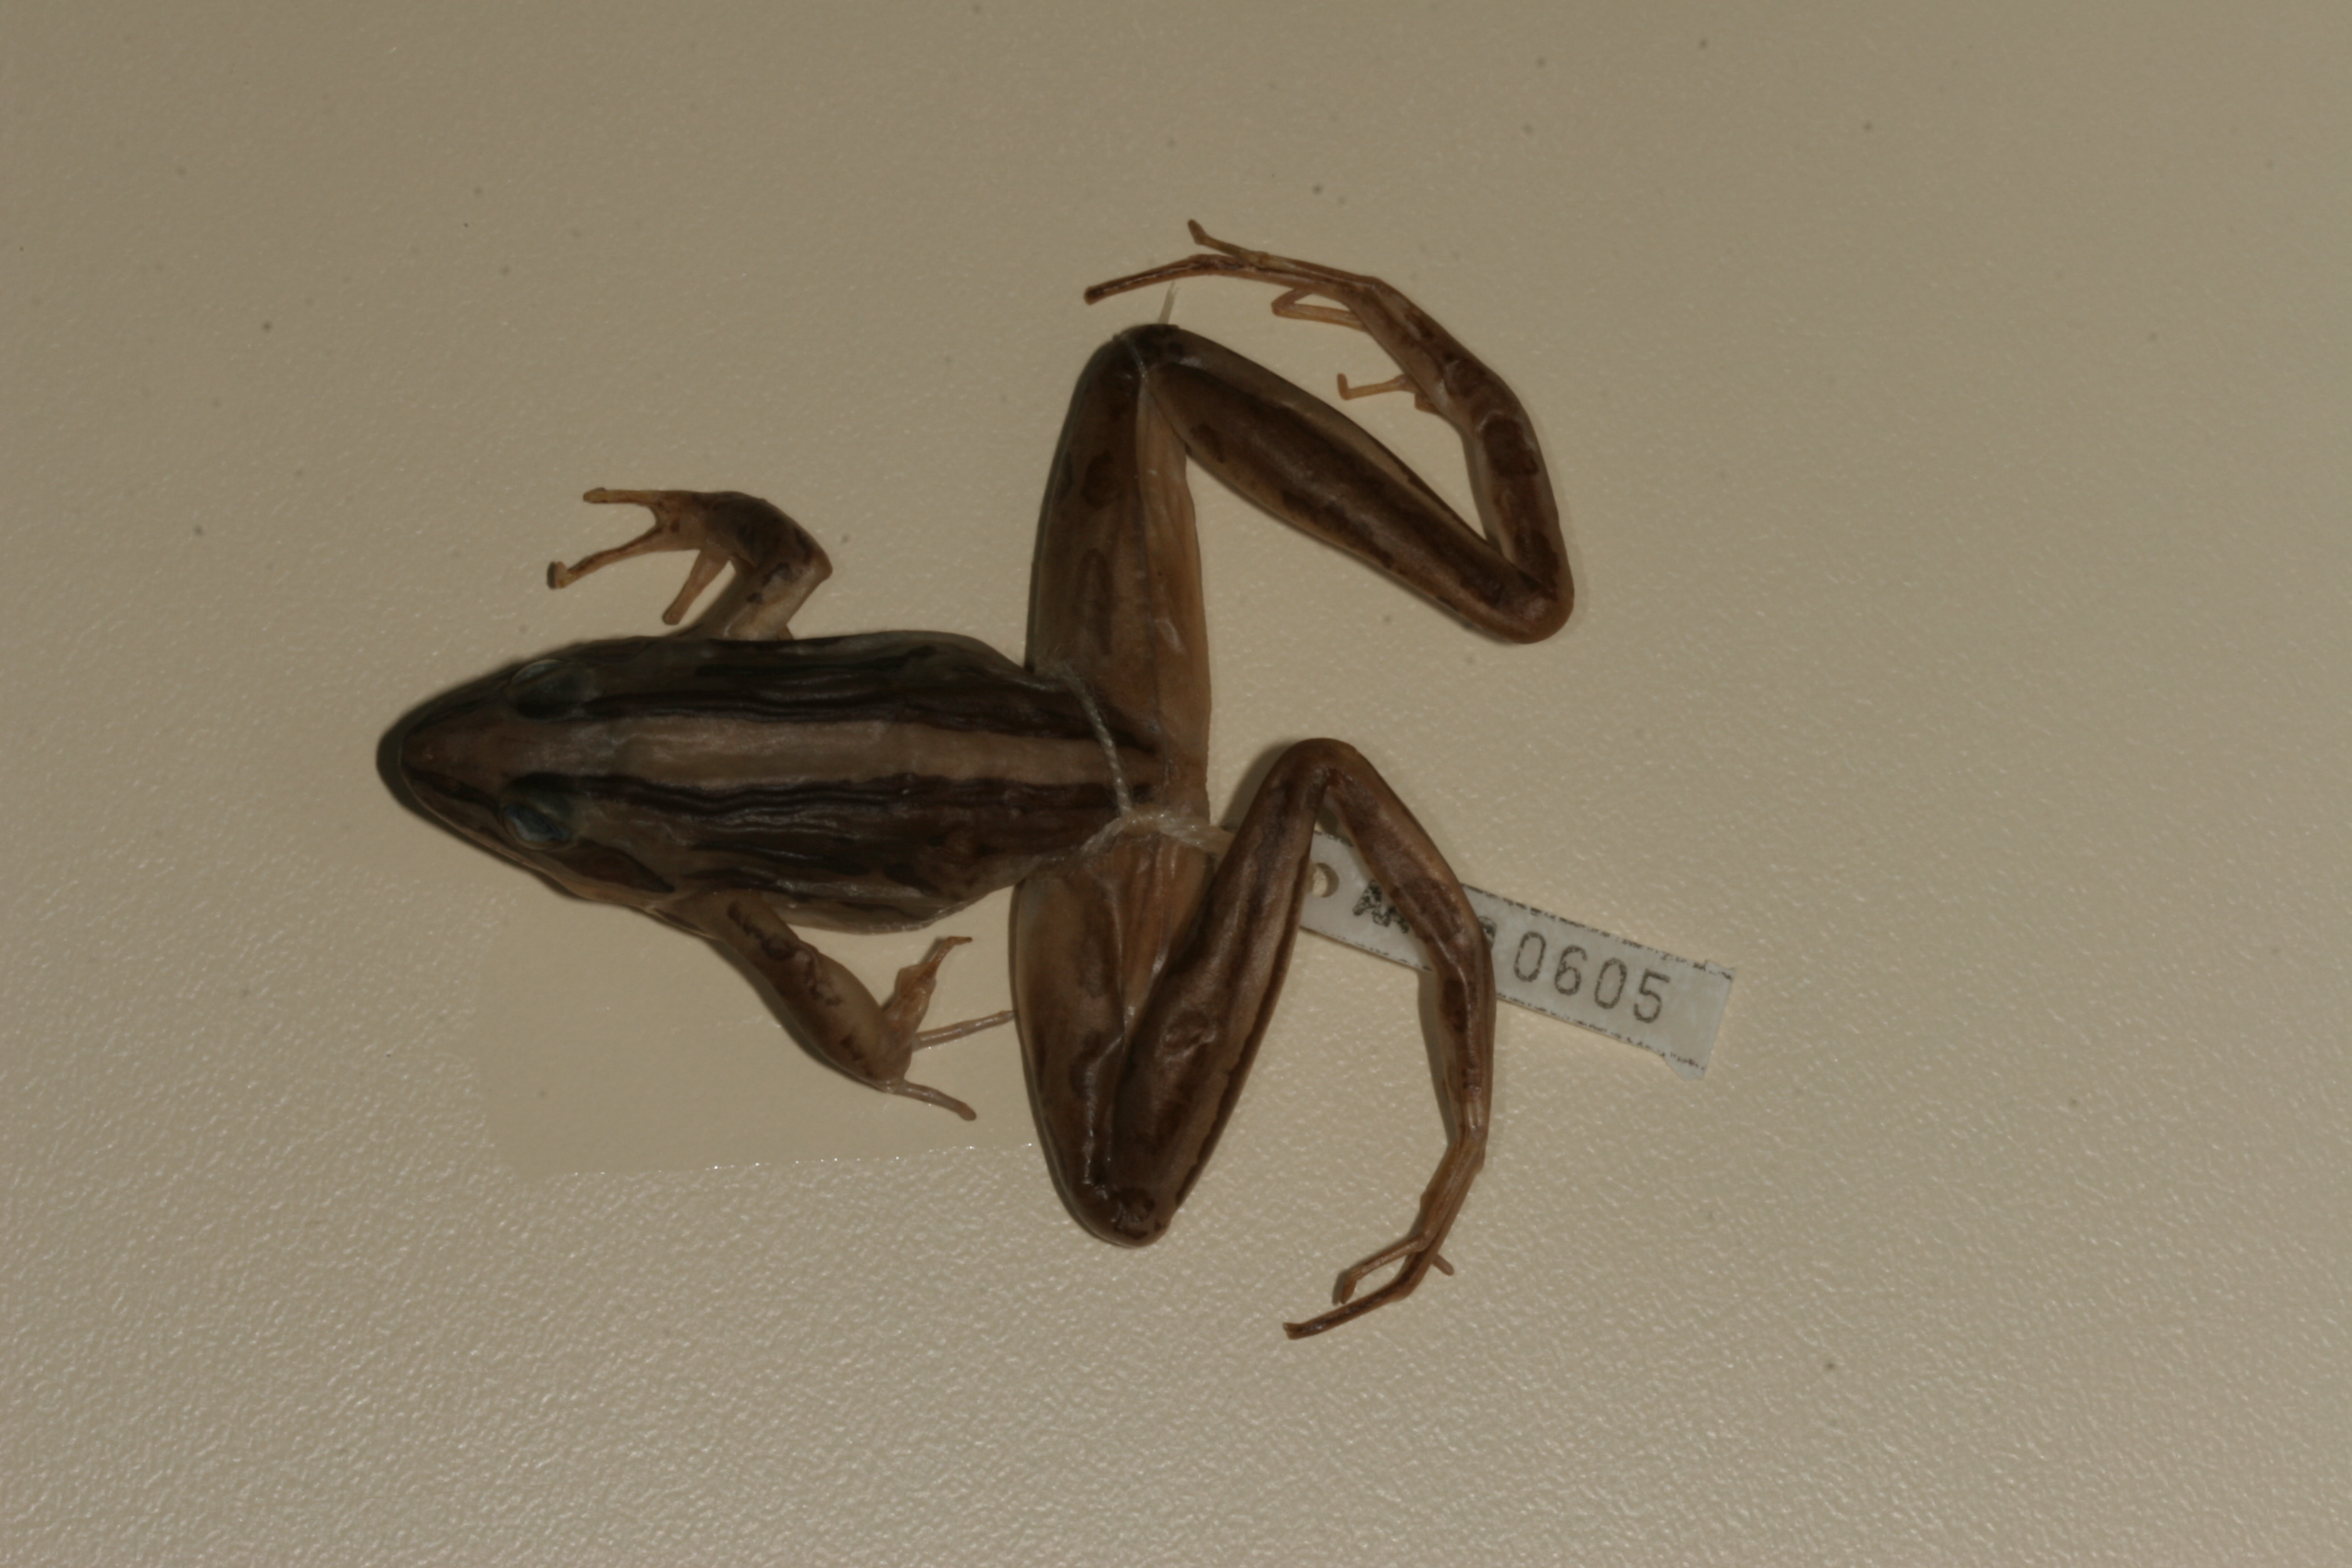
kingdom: Animalia
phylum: Chordata
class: Amphibia
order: Anura
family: Pyxicephalidae
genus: Strongylopus
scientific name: Strongylopus fasciatus
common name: Striped stream frog
